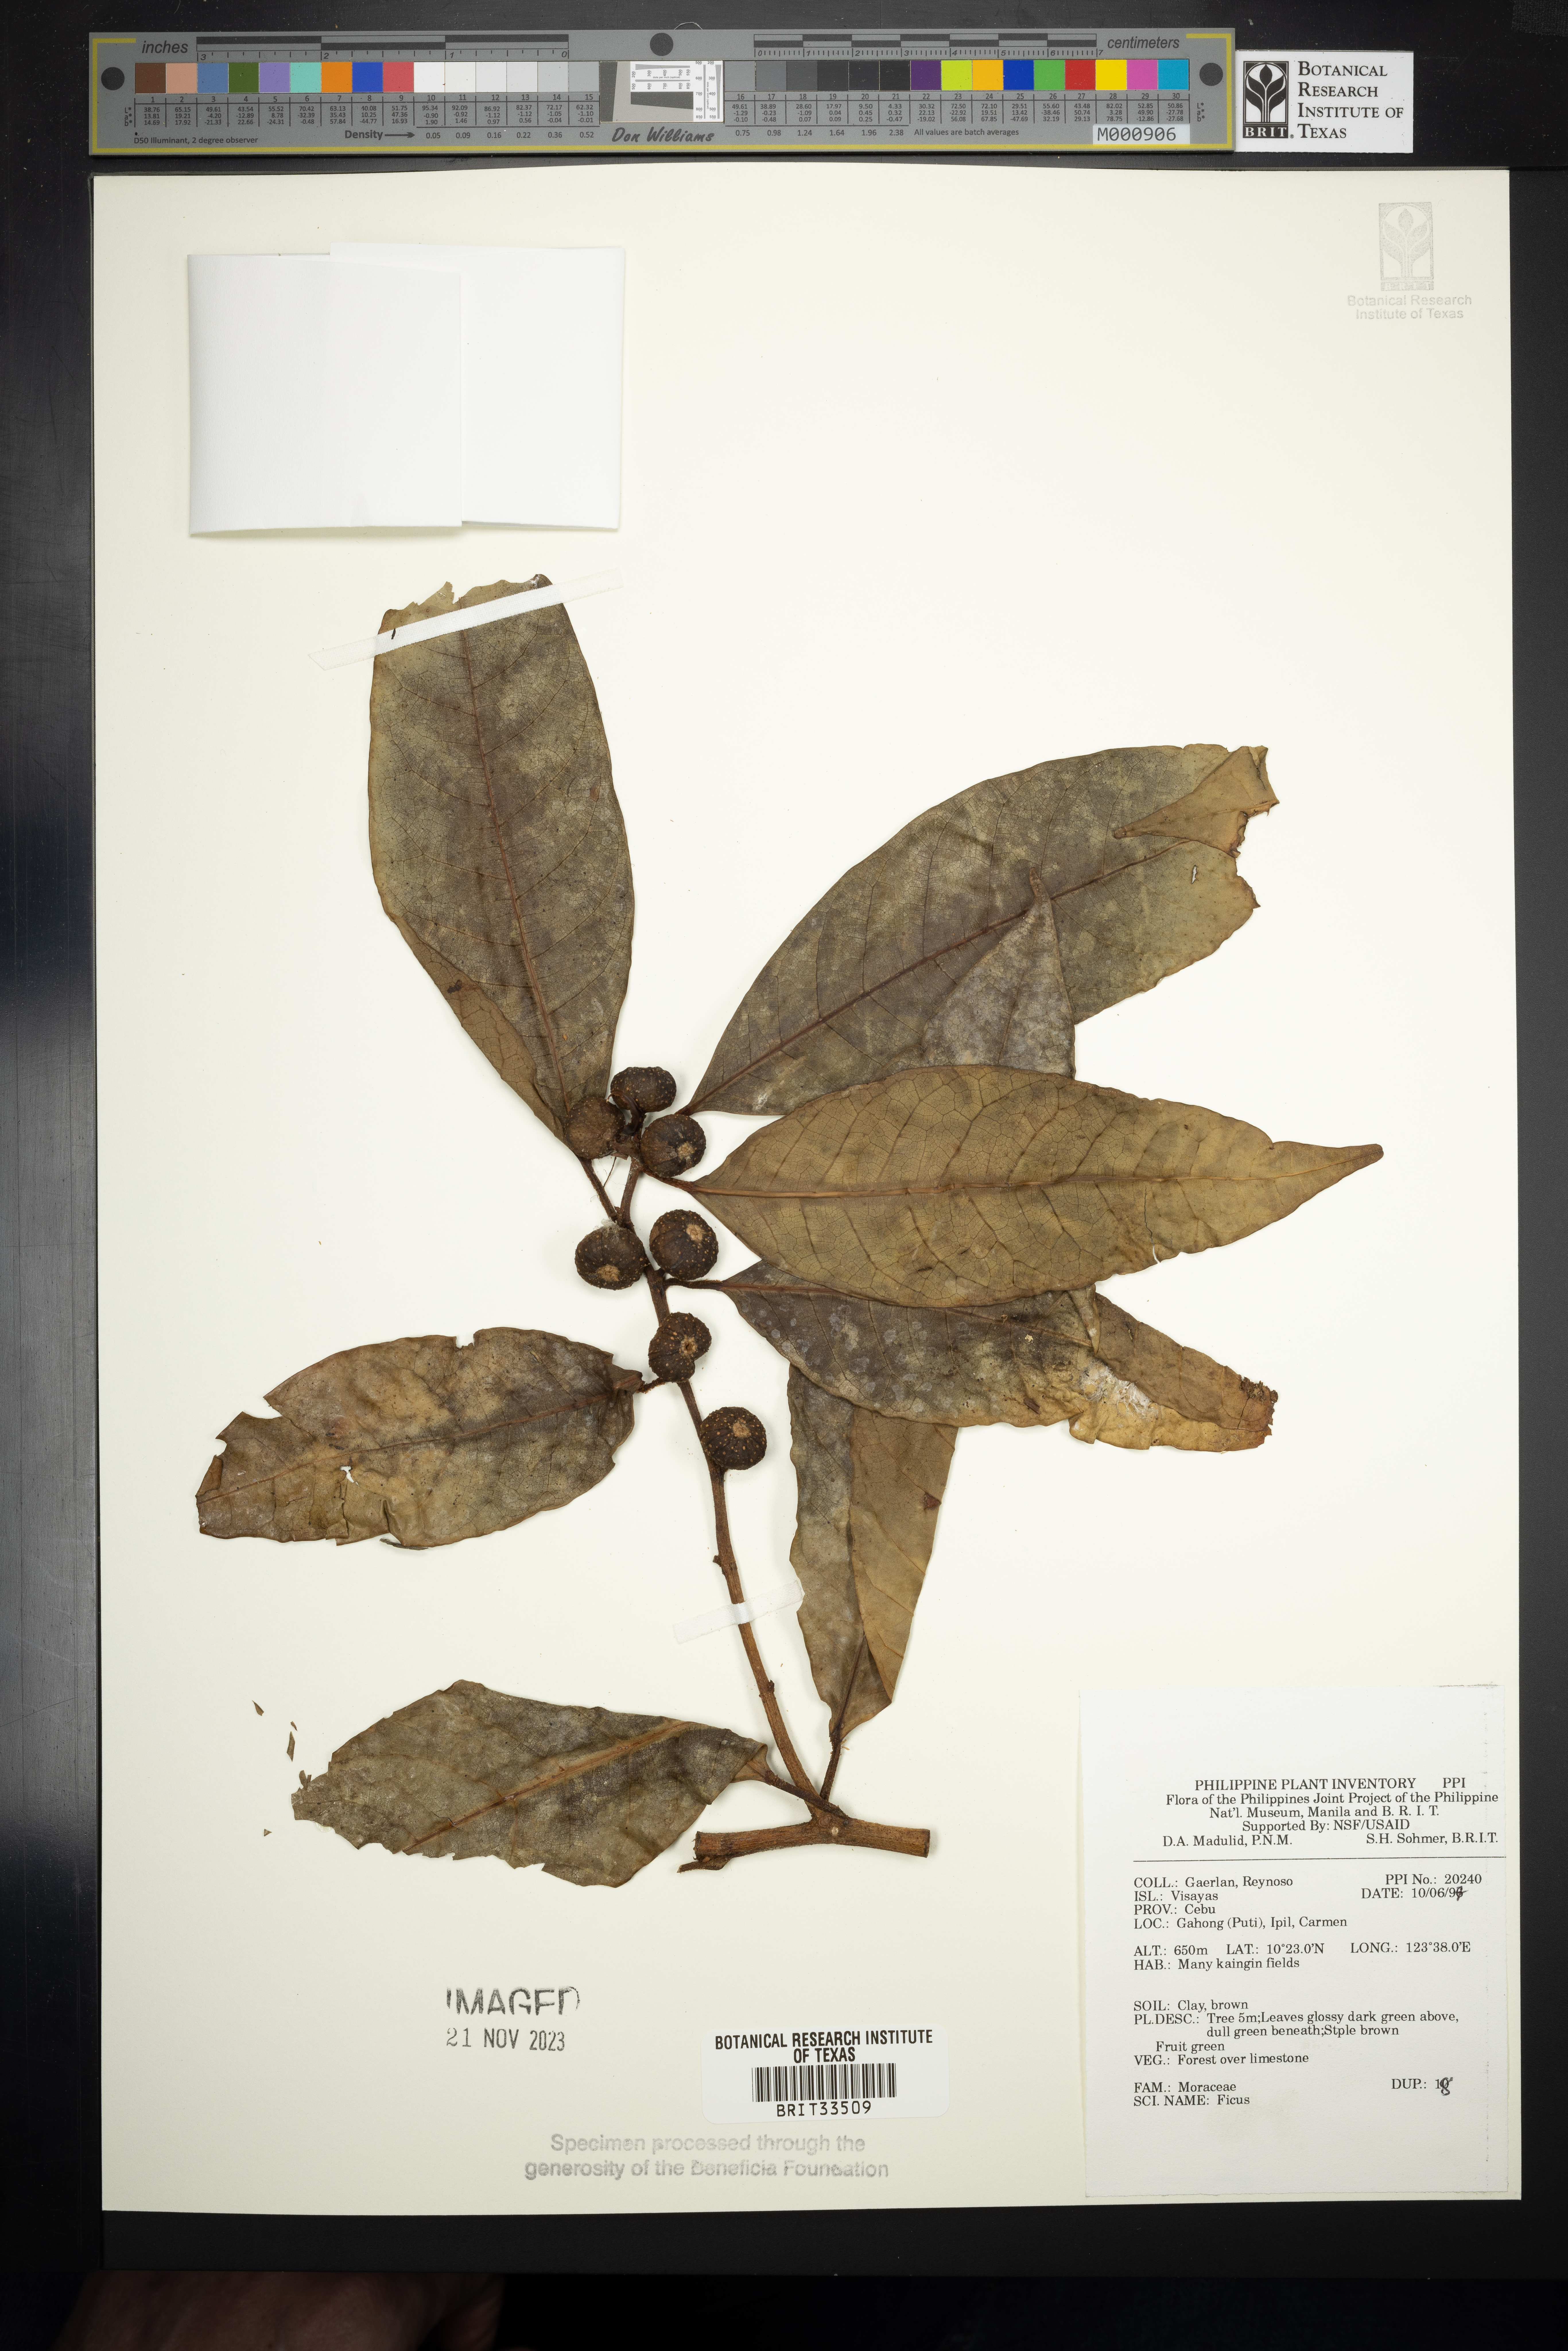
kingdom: Plantae
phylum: Tracheophyta
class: Magnoliopsida
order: Rosales
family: Moraceae
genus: Ficus
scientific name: Ficus
